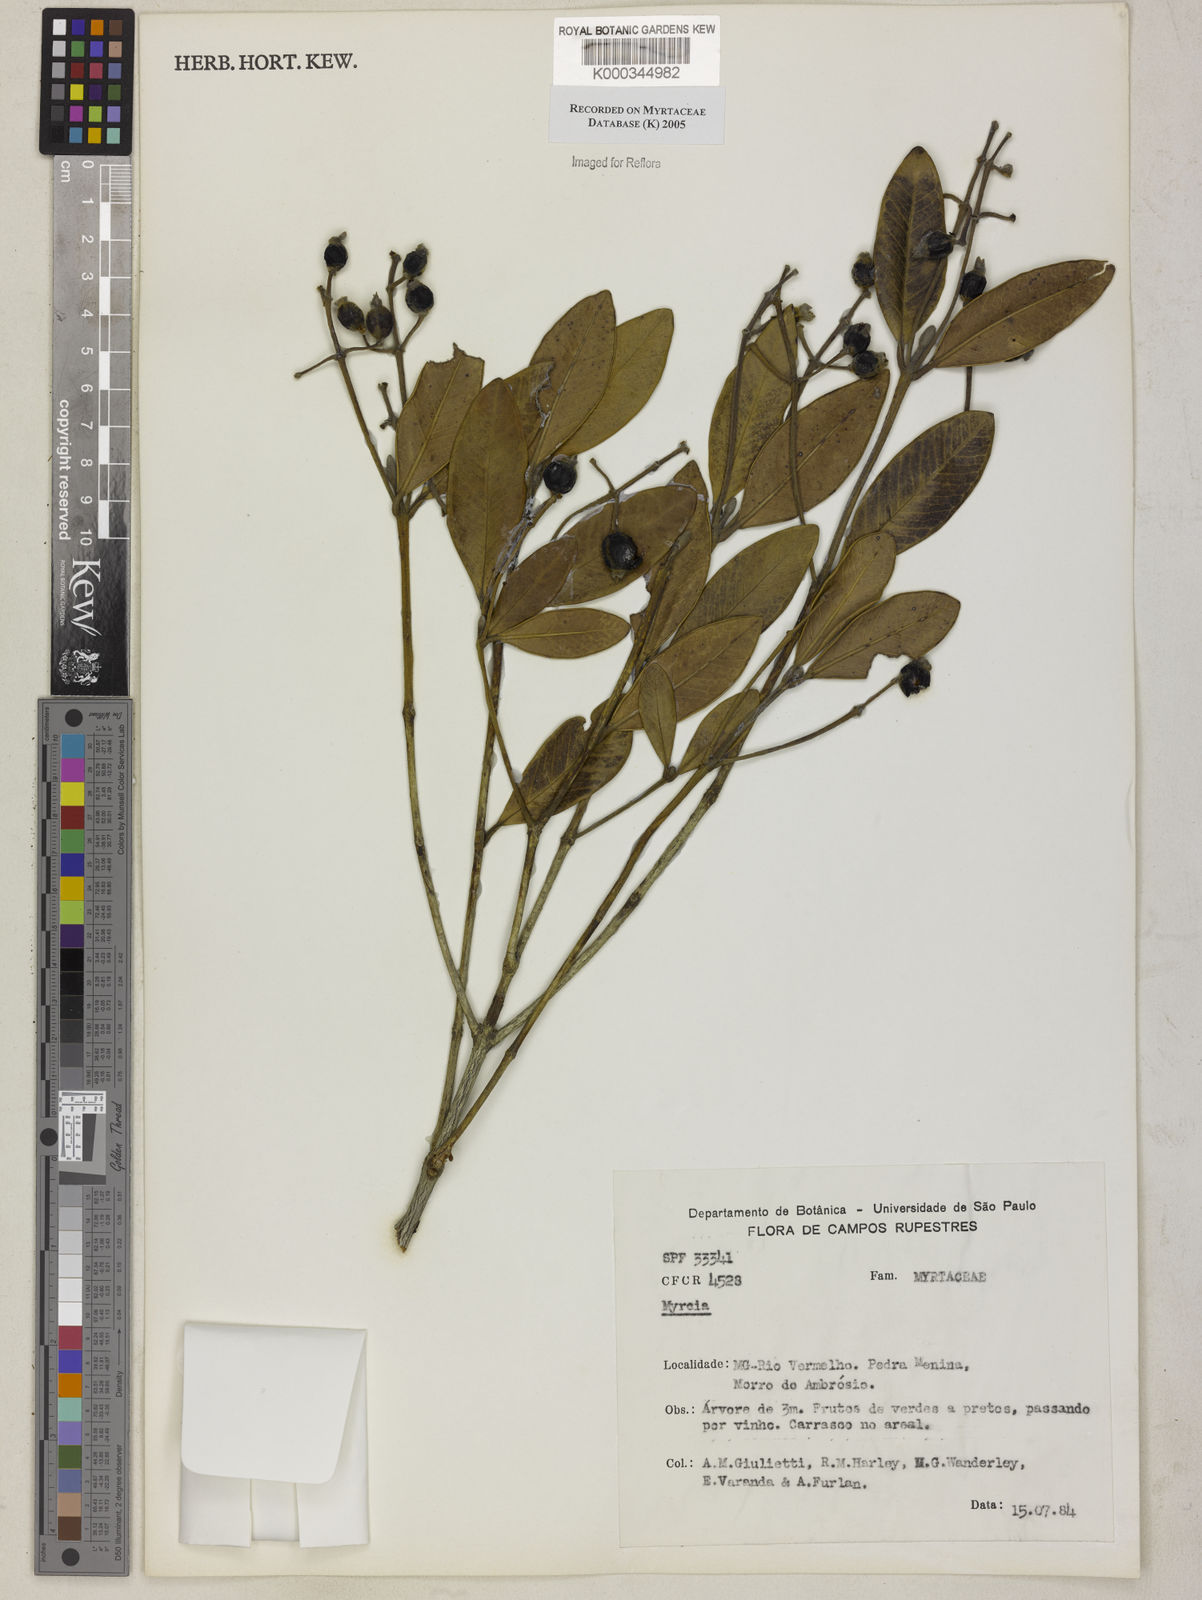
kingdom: Plantae
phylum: Tracheophyta
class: Magnoliopsida
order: Myrtales
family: Myrtaceae
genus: Myrcia
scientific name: Myrcia
